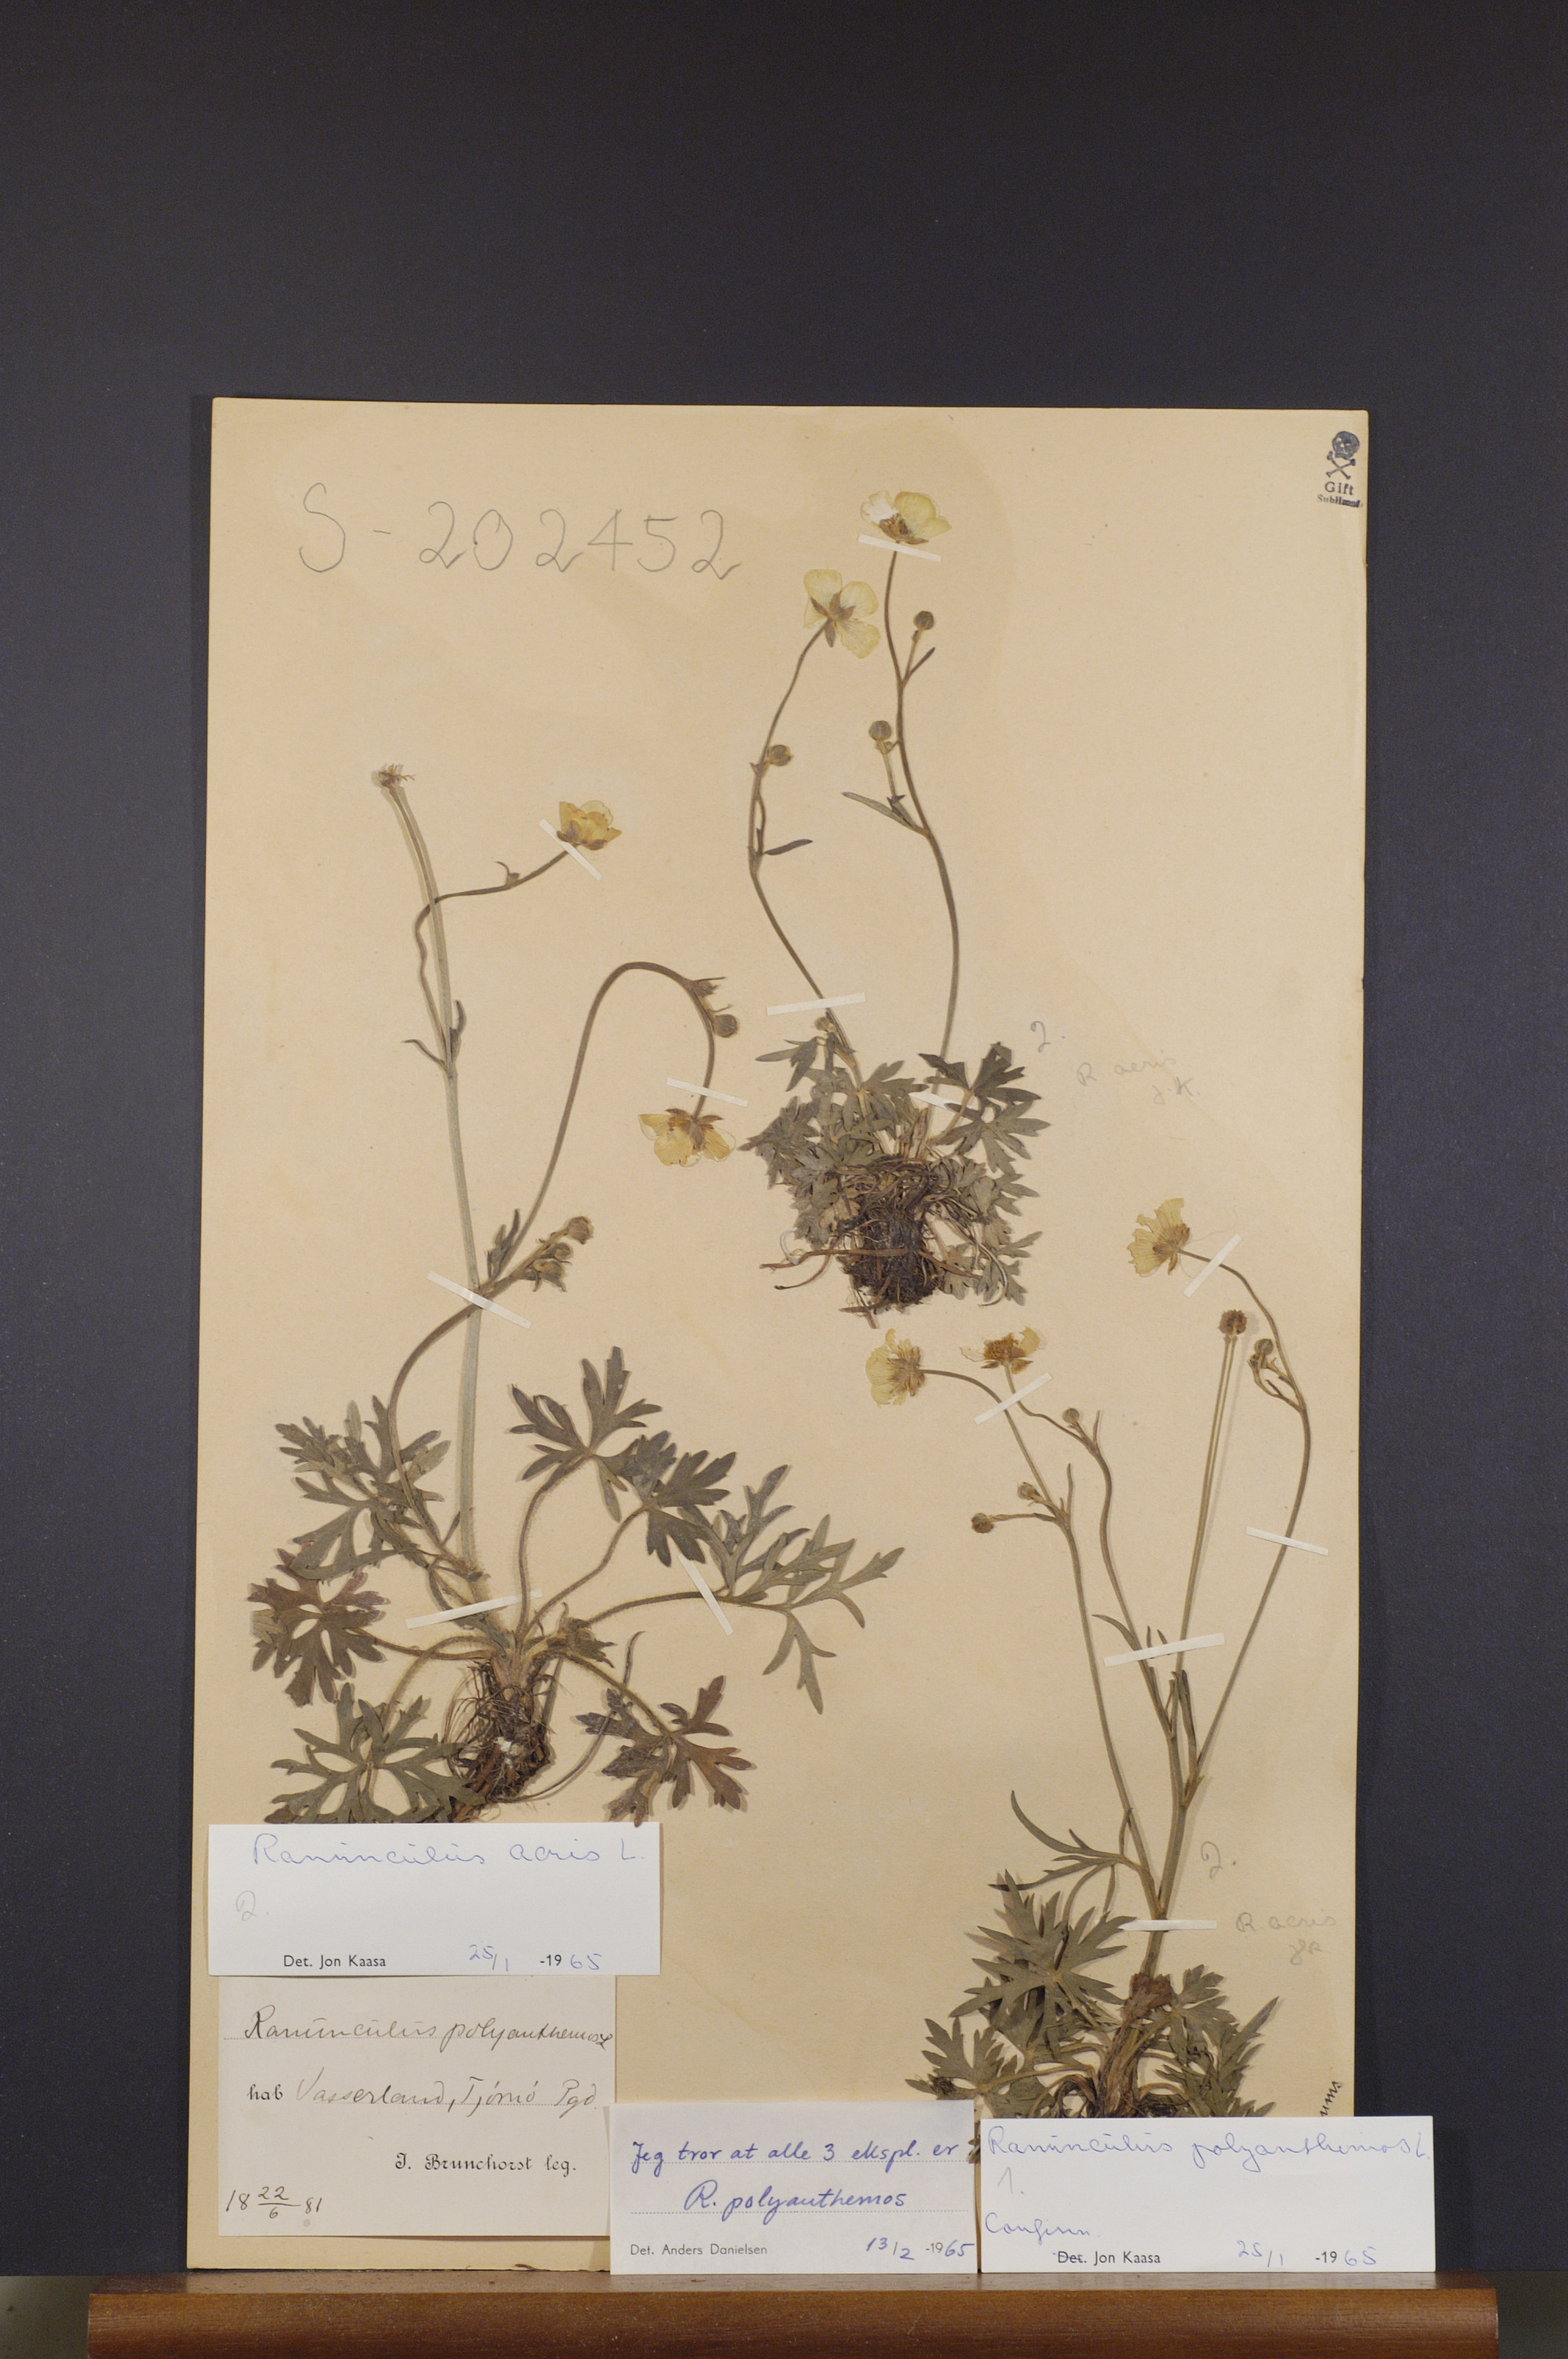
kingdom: Plantae
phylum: Tracheophyta
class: Magnoliopsida
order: Ranunculales
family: Ranunculaceae
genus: Ranunculus
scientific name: Ranunculus polyanthemos
